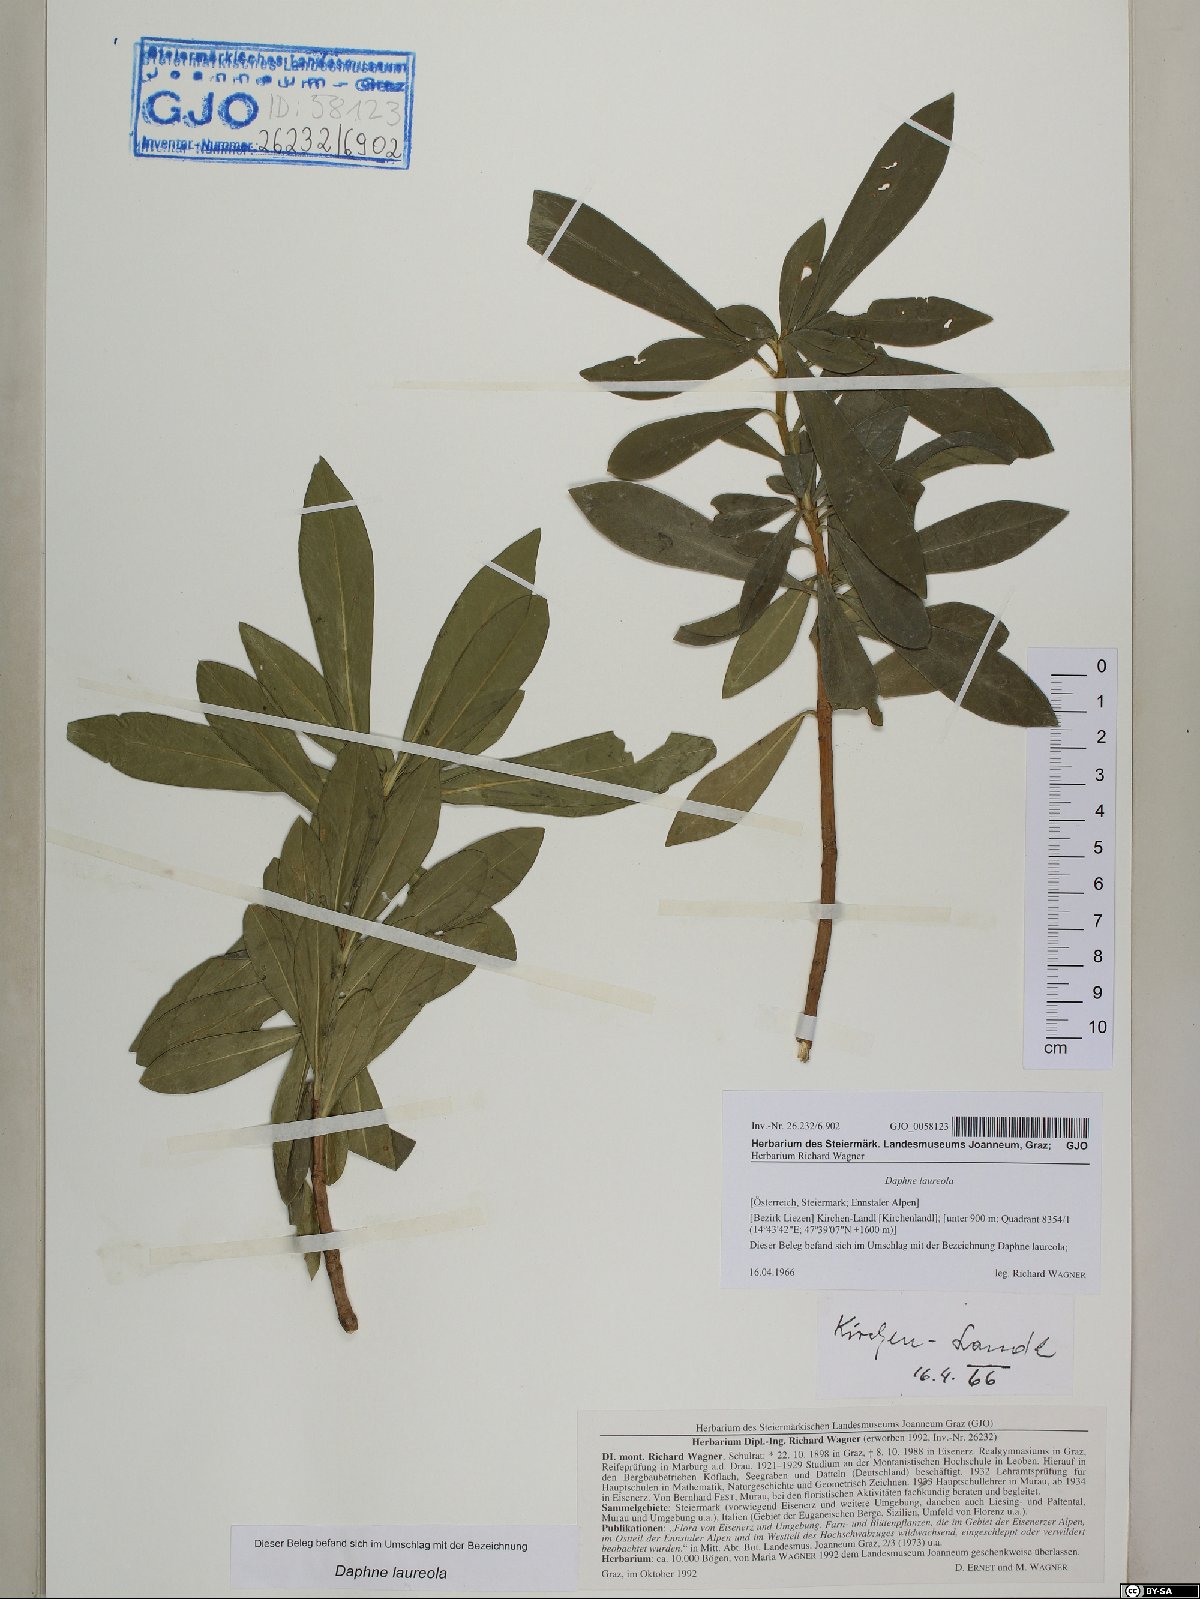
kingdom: Plantae
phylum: Tracheophyta
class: Magnoliopsida
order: Malvales
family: Thymelaeaceae
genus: Daphne
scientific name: Daphne laureola
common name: Spurge-laurel
